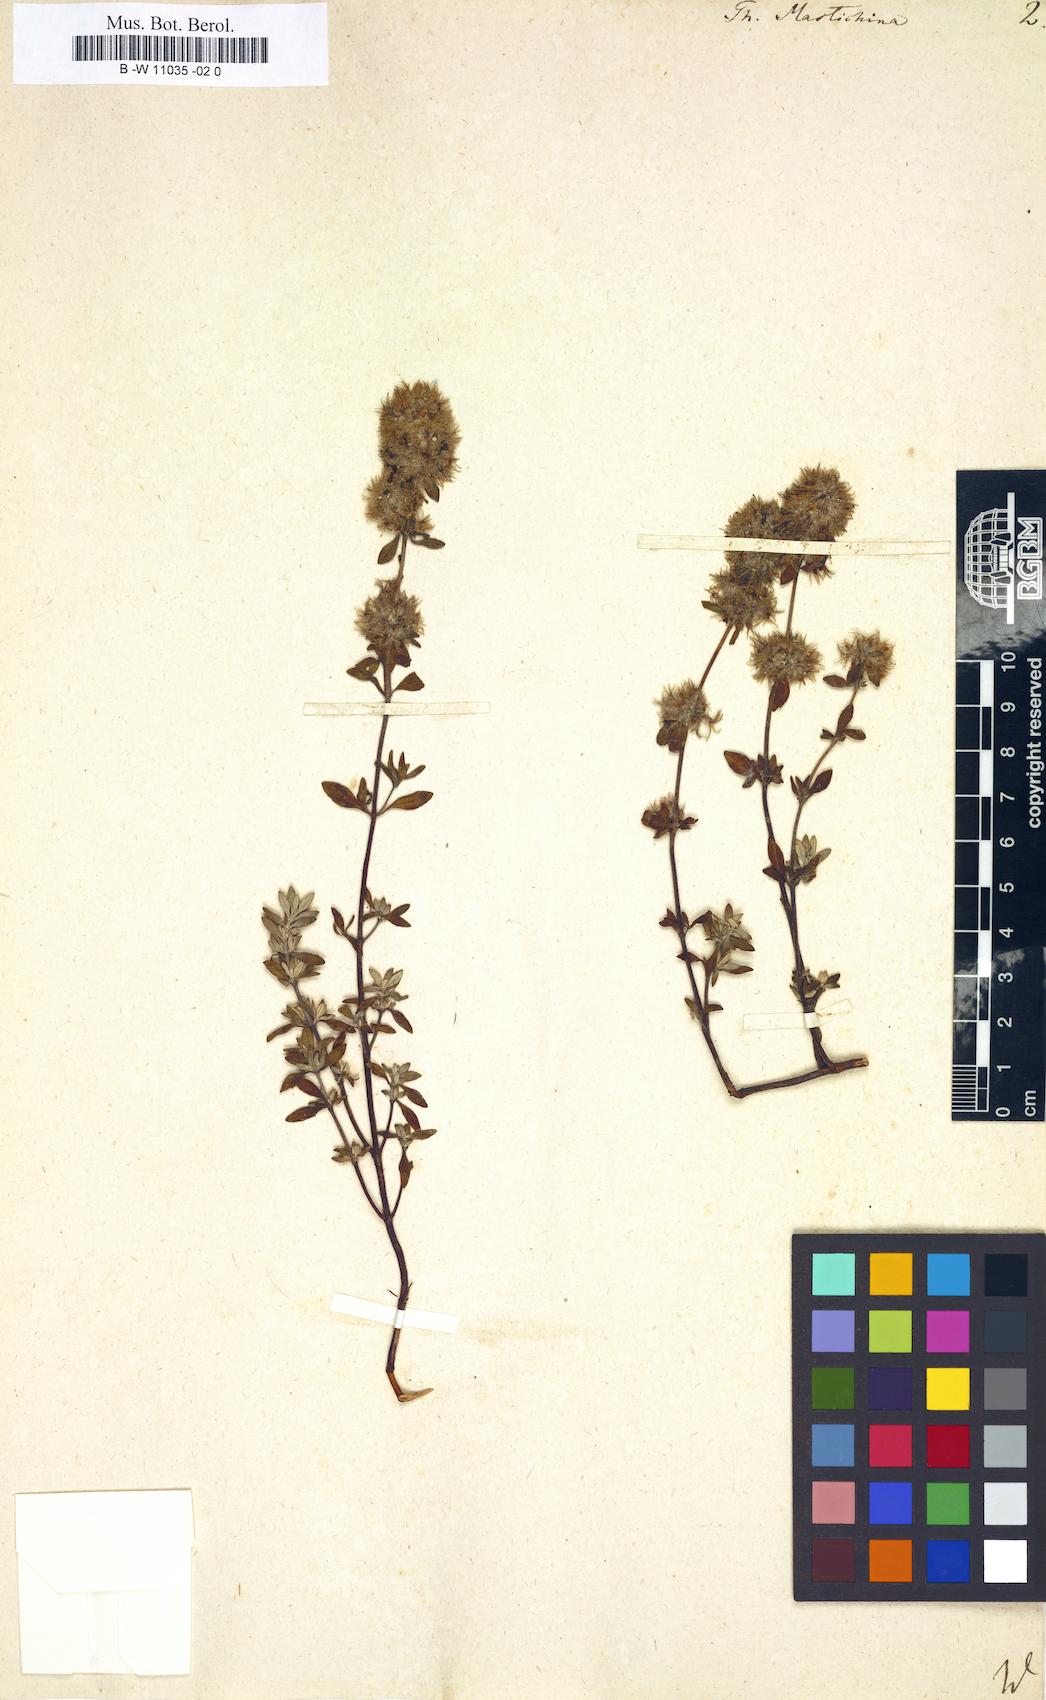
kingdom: Plantae
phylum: Tracheophyta
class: Magnoliopsida
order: Lamiales
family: Lamiaceae
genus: Thymus
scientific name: Thymus mastichina
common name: Mastic thyme
